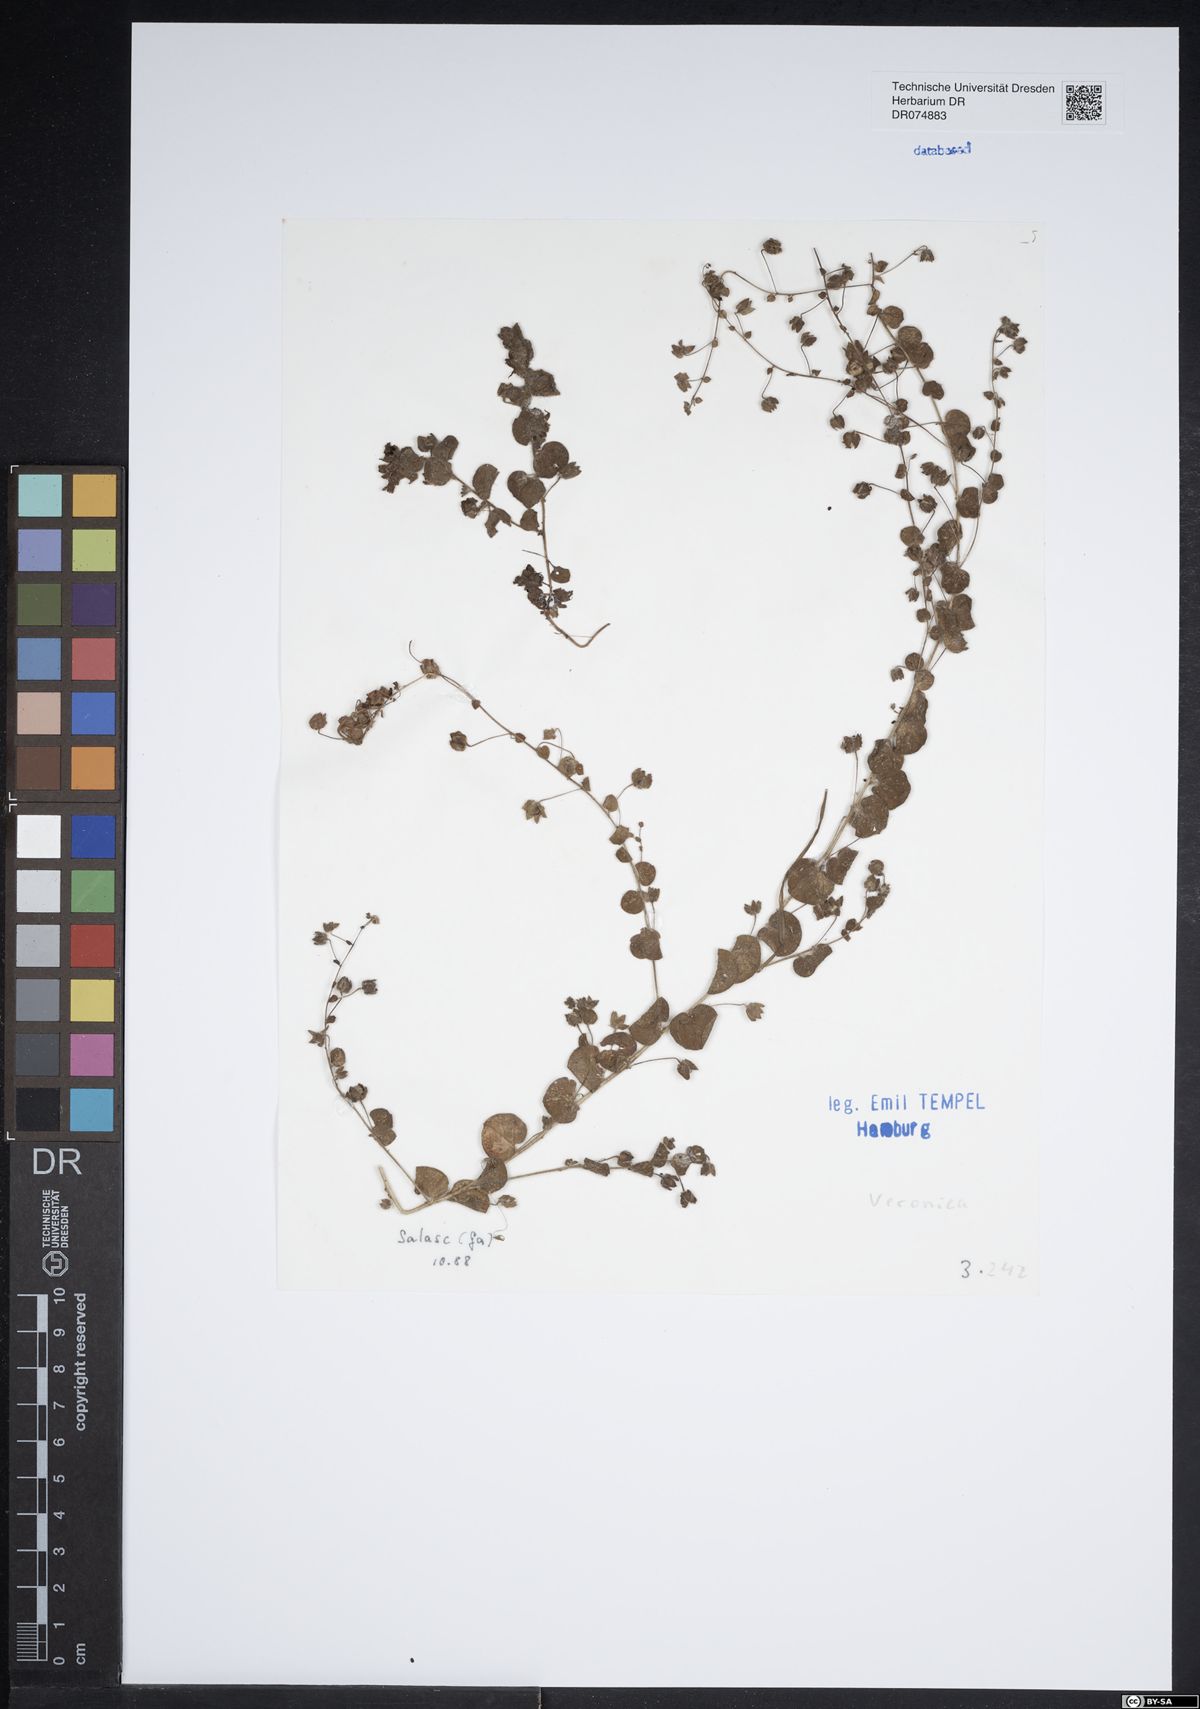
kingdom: Plantae
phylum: Tracheophyta
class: Magnoliopsida
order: Lamiales
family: Plantaginaceae
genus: Veronica
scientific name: Veronica
